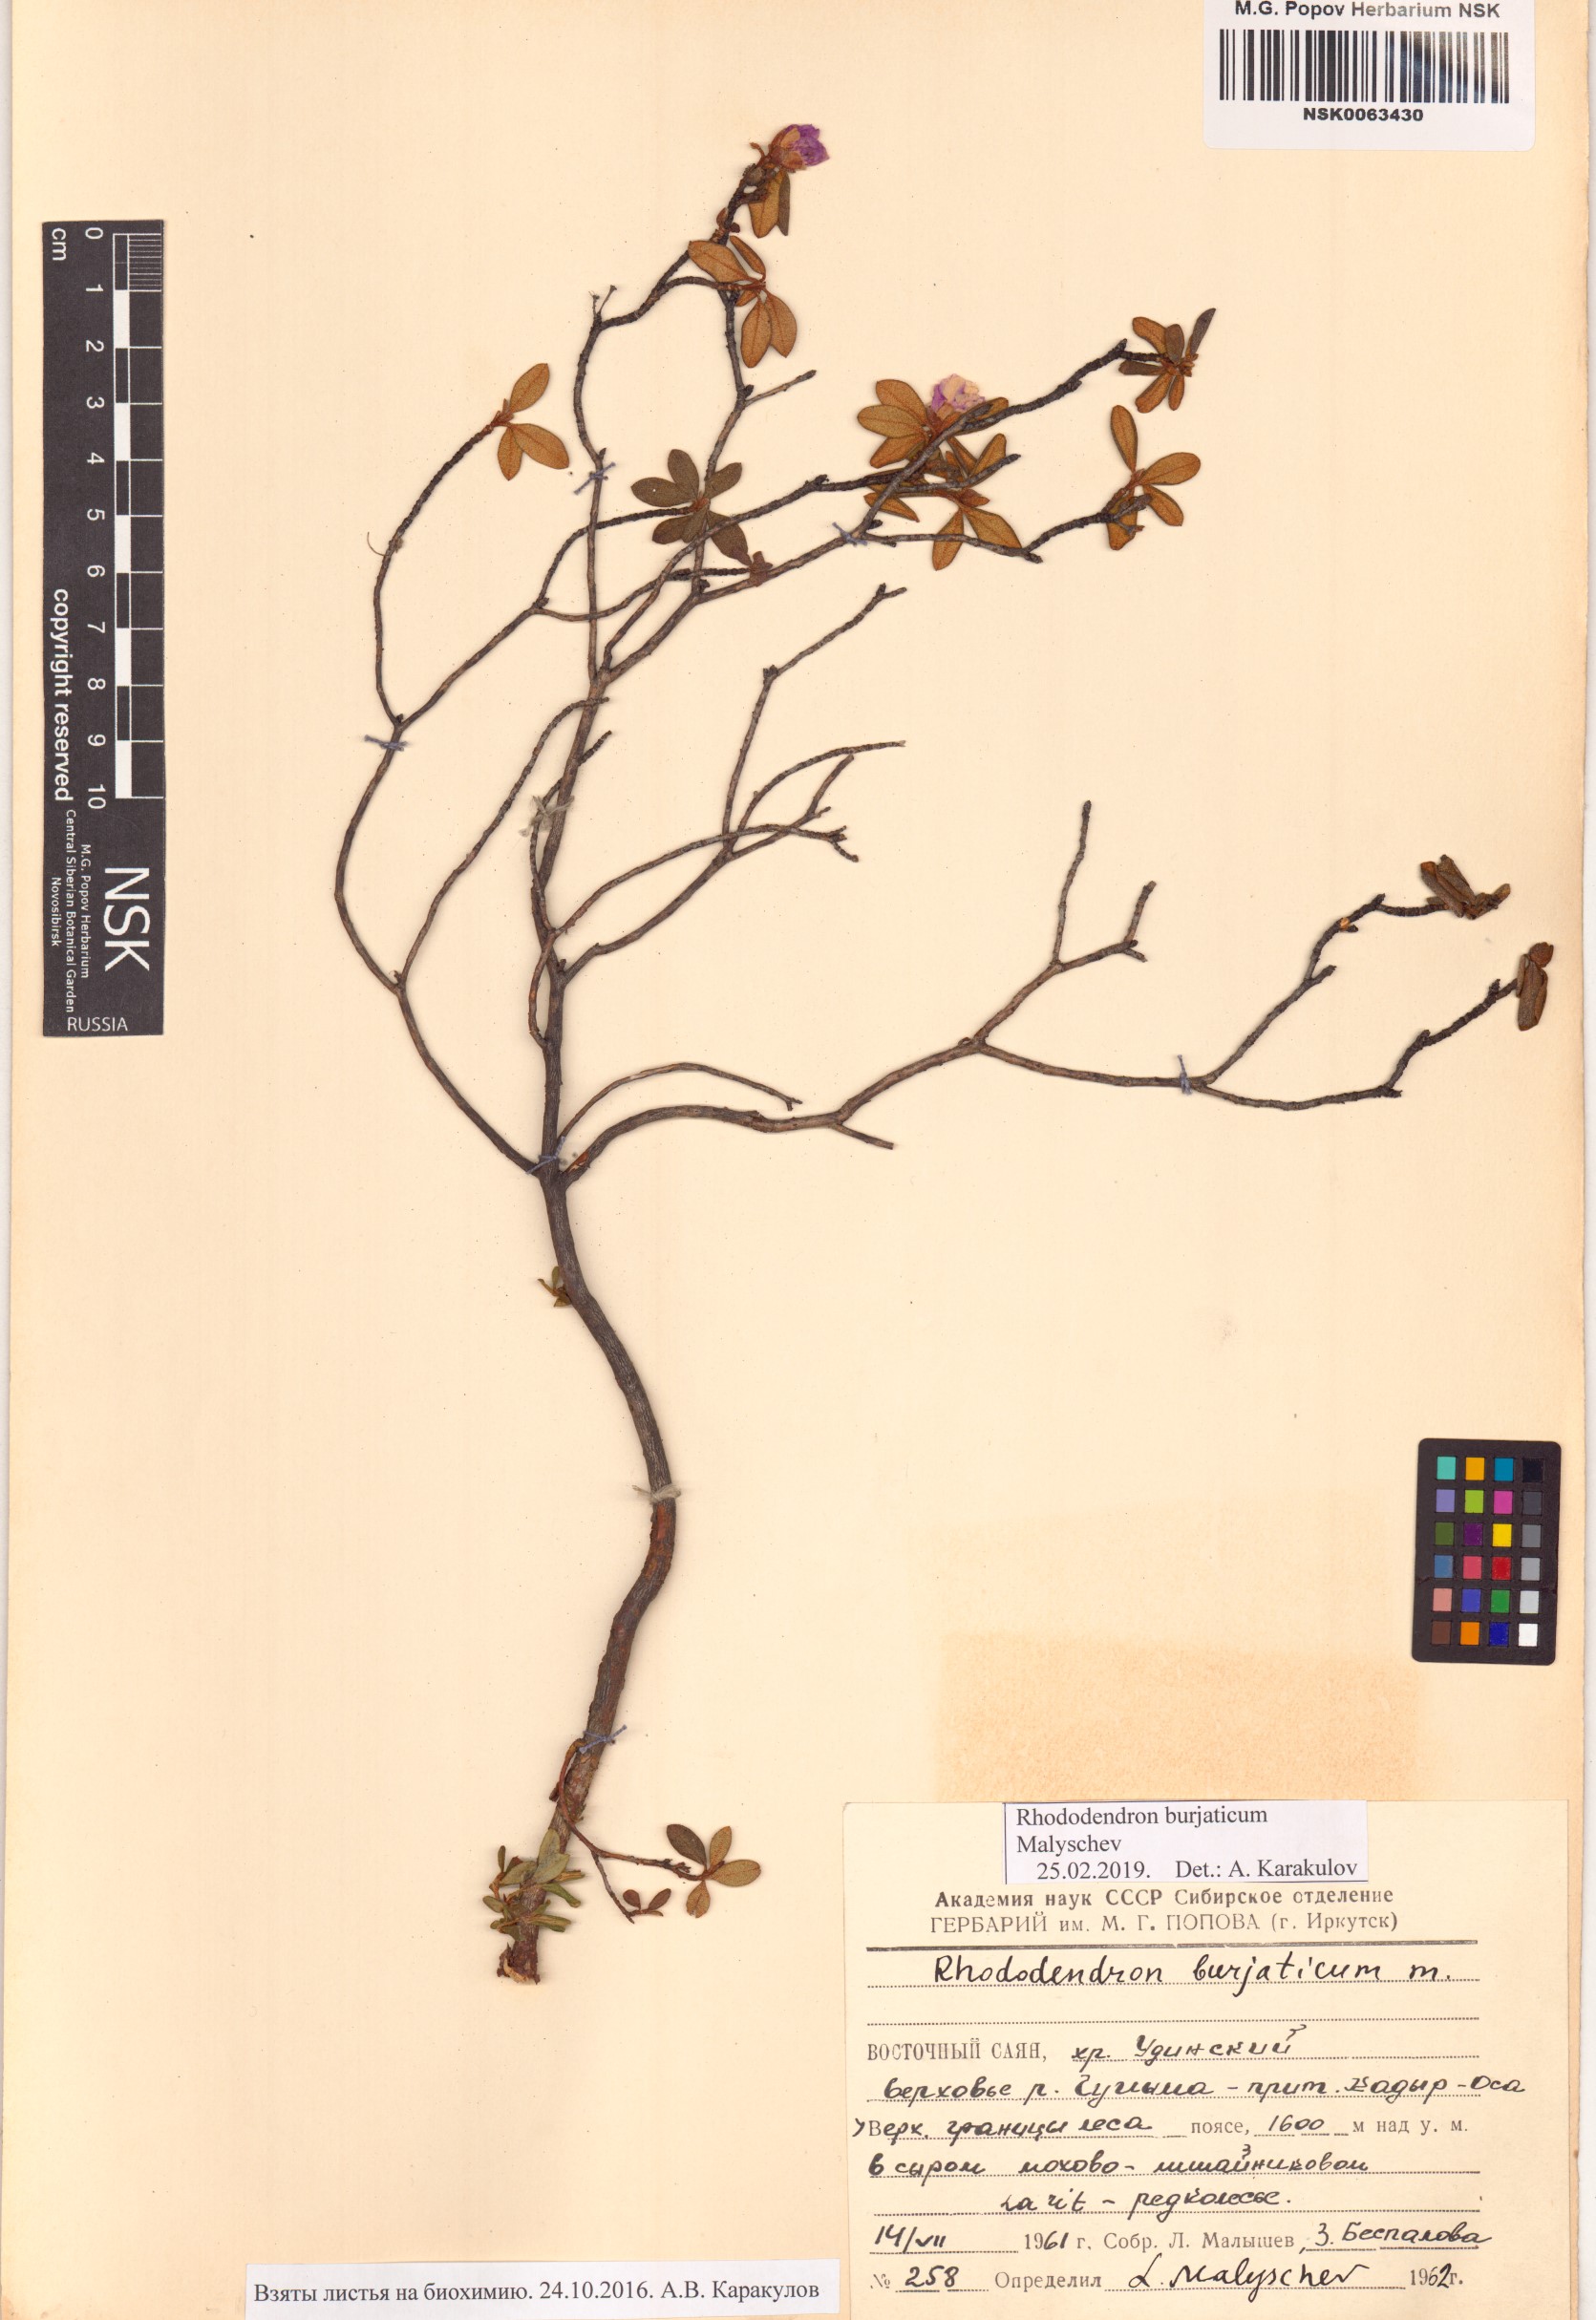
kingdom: Plantae
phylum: Tracheophyta
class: Magnoliopsida
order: Ericales
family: Ericaceae
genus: Rhododendron
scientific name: Rhododendron burjaticum
